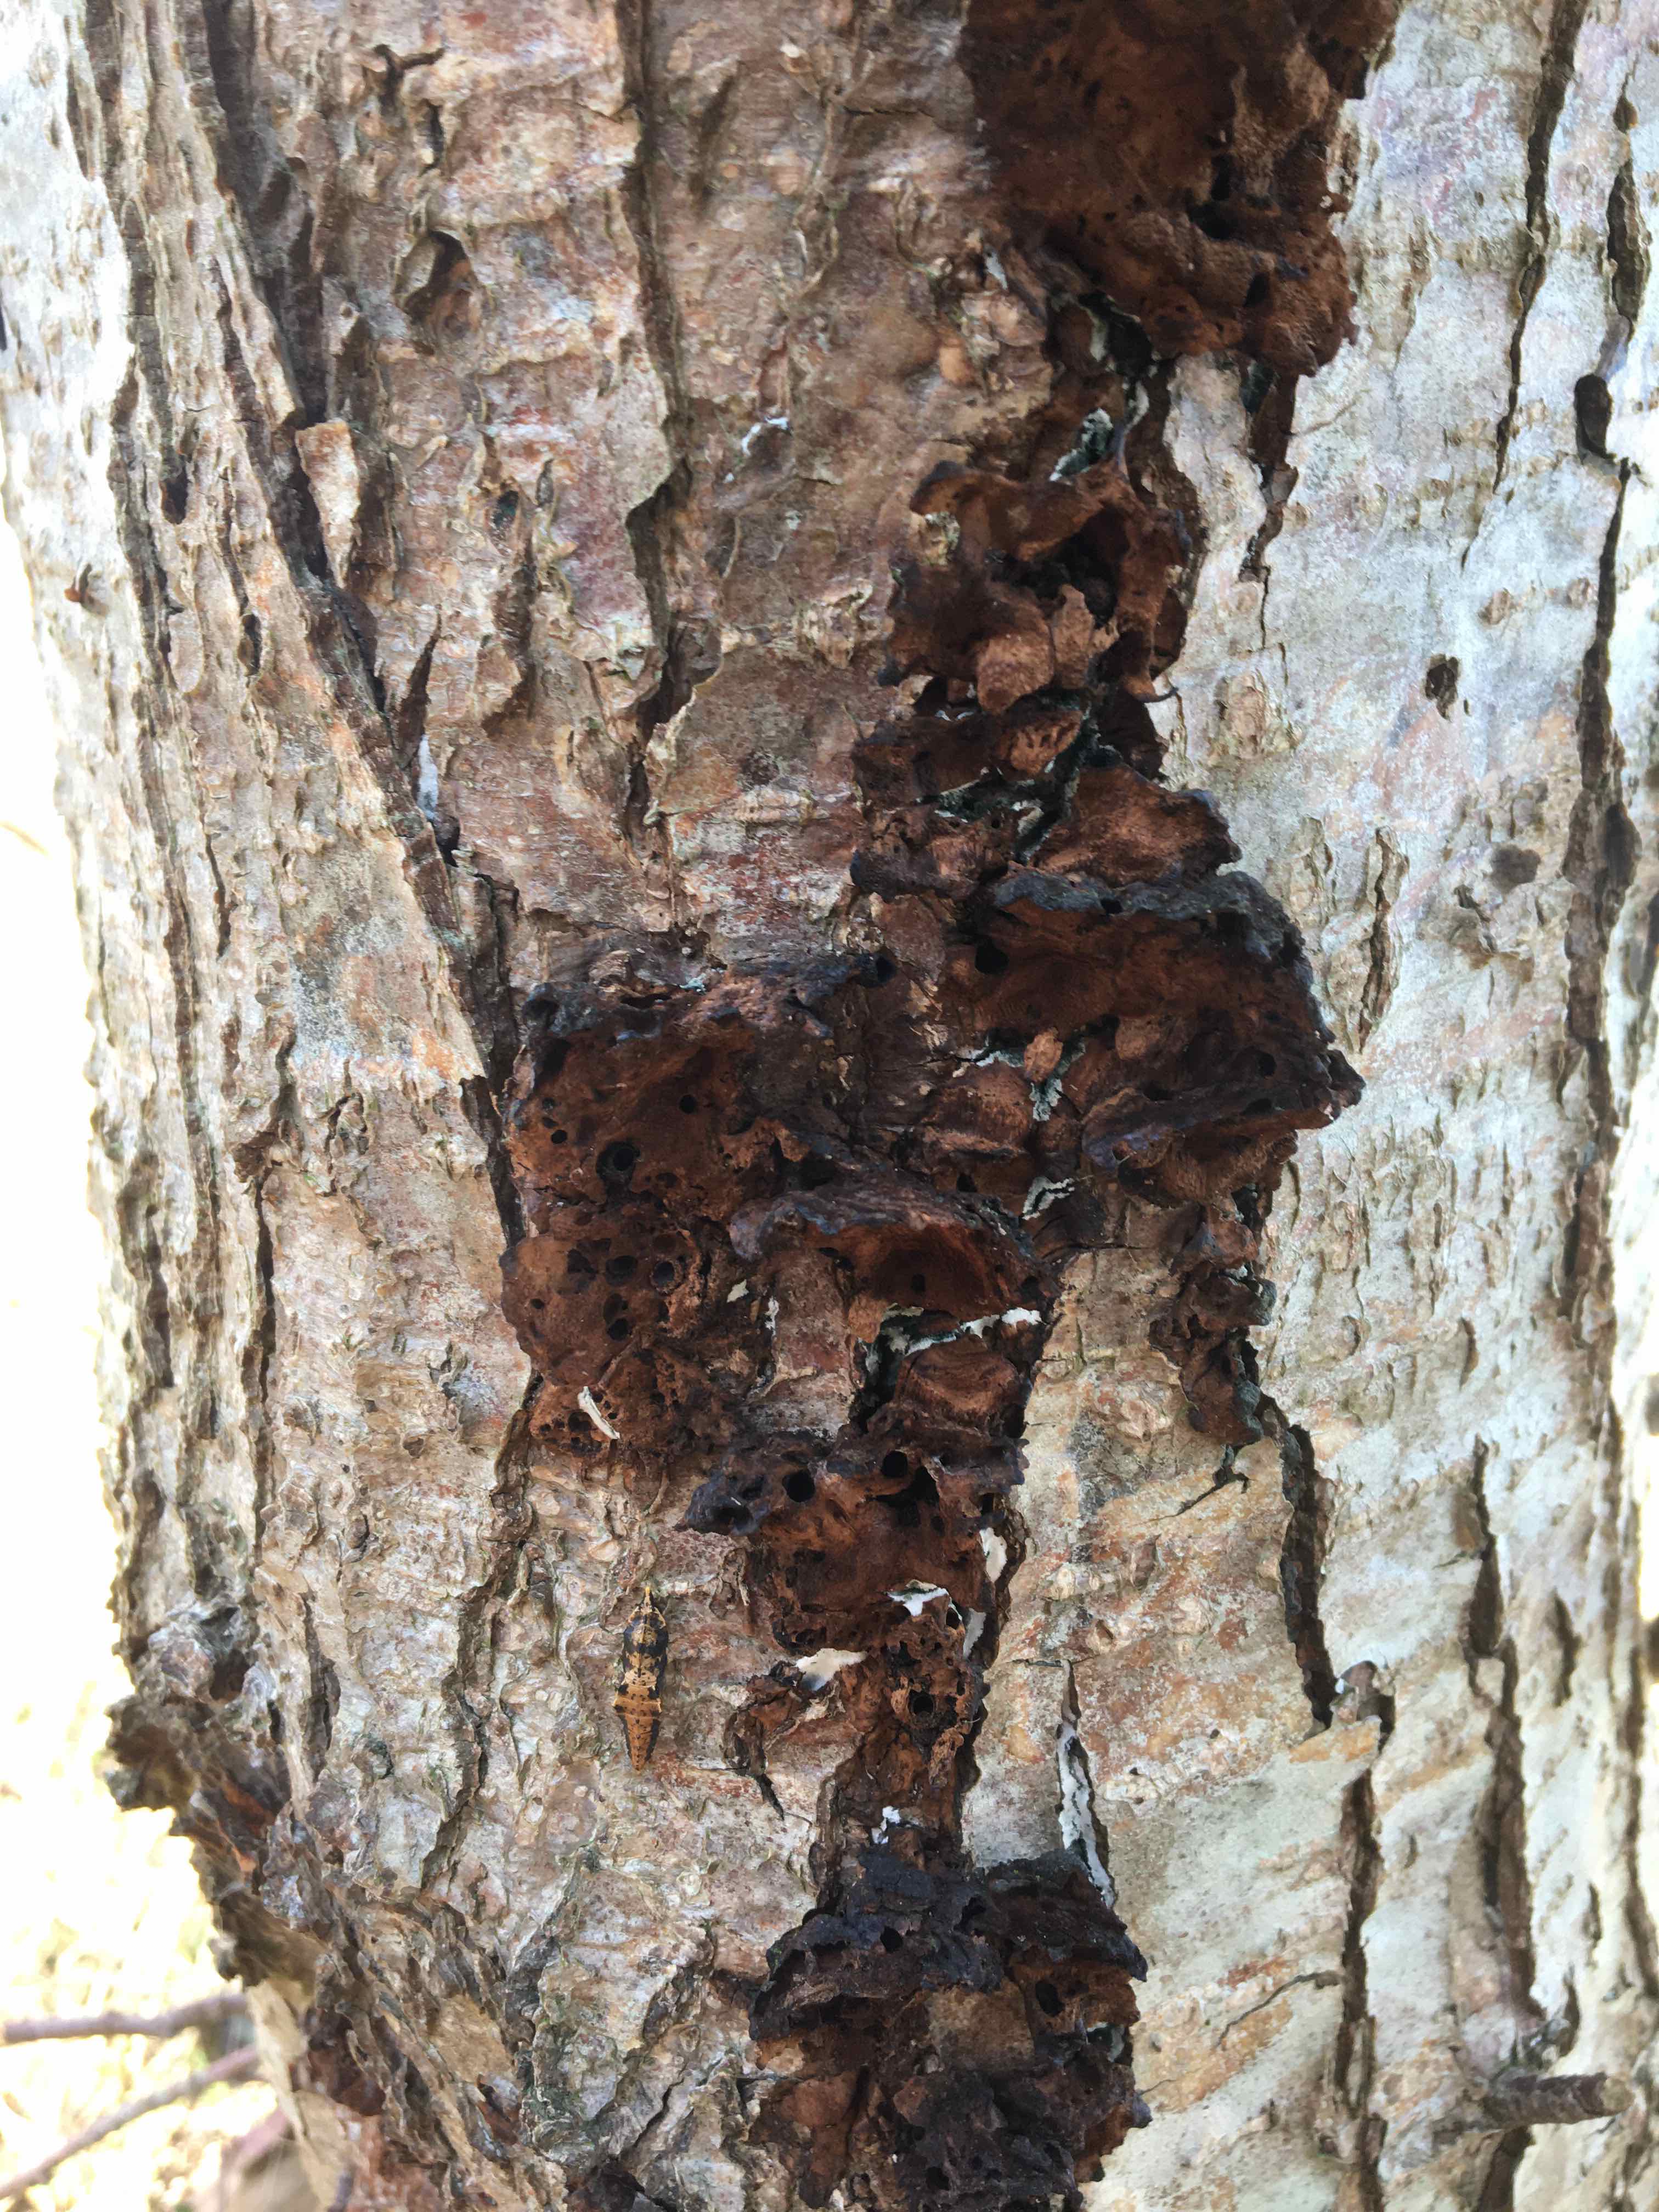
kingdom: Fungi
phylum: Basidiomycota
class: Agaricomycetes
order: Hymenochaetales
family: Hymenochaetaceae
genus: Xanthoporia
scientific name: Xanthoporia radiata
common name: elle-spejlporesvamp
